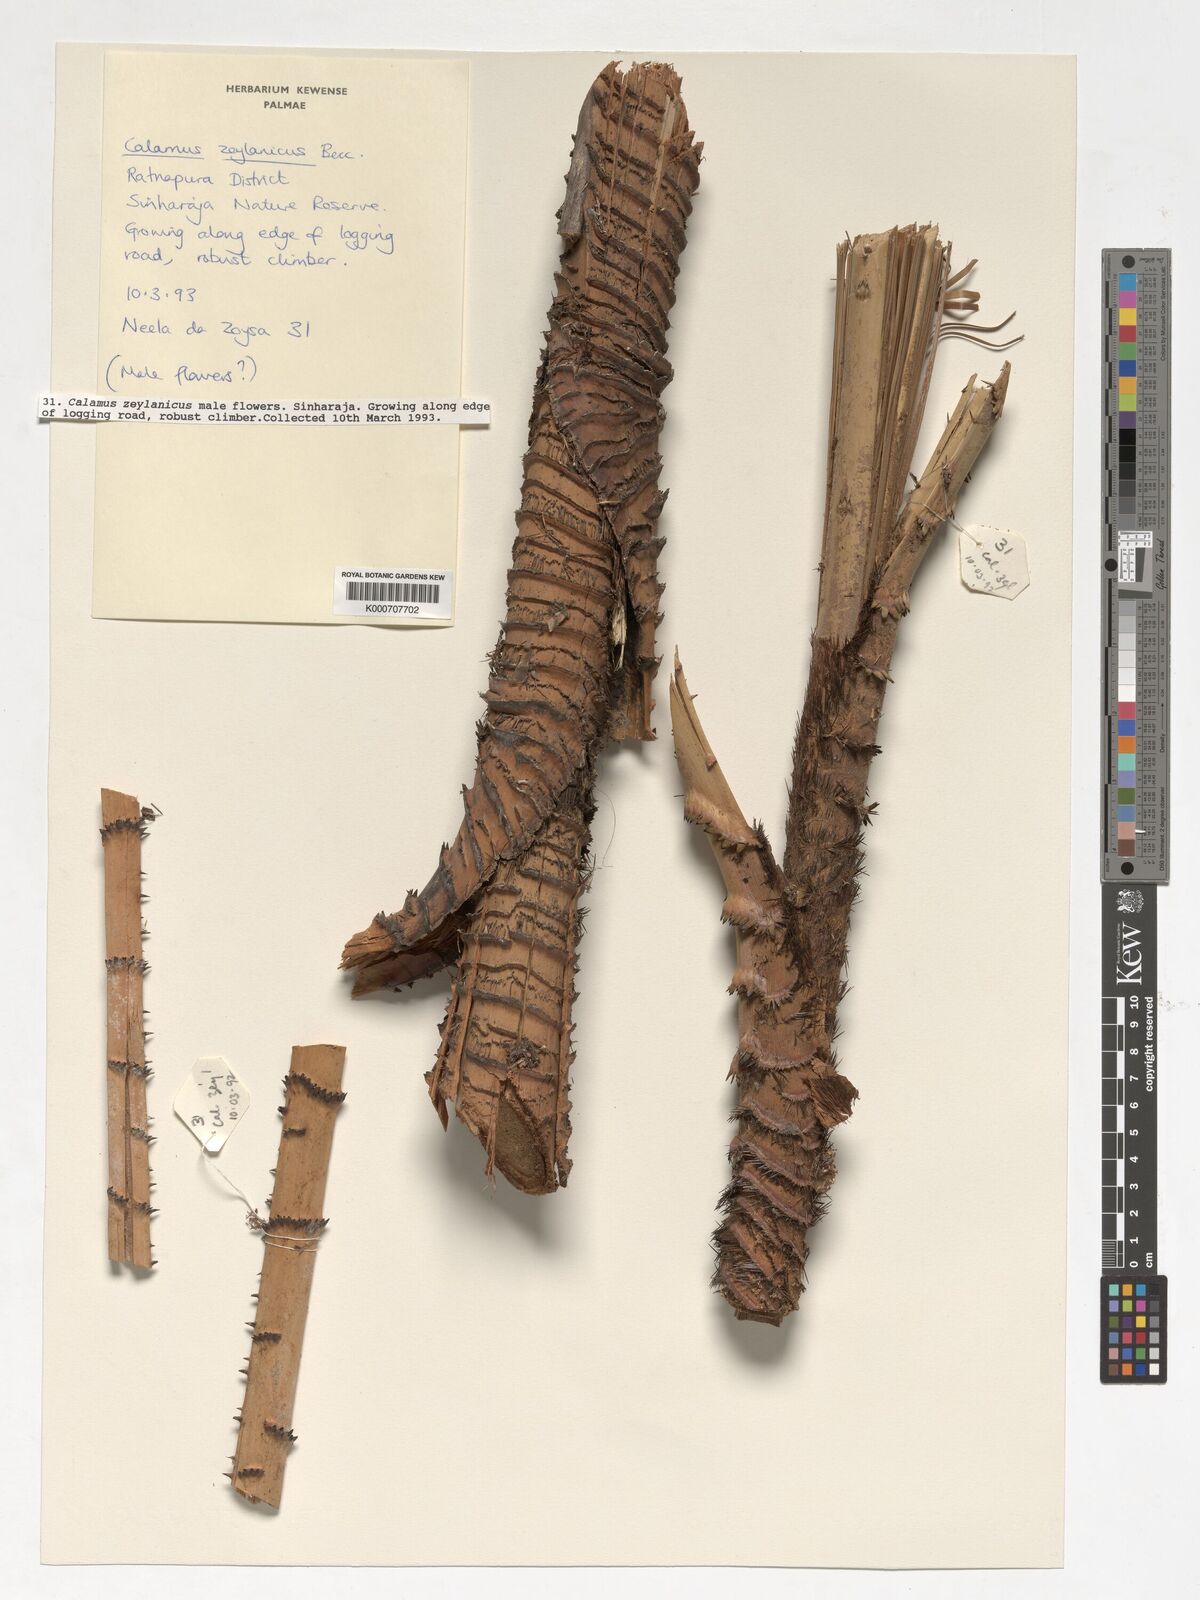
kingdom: Plantae
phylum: Tracheophyta
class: Liliopsida
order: Arecales
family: Arecaceae
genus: Calamus
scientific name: Calamus zeylanicus
